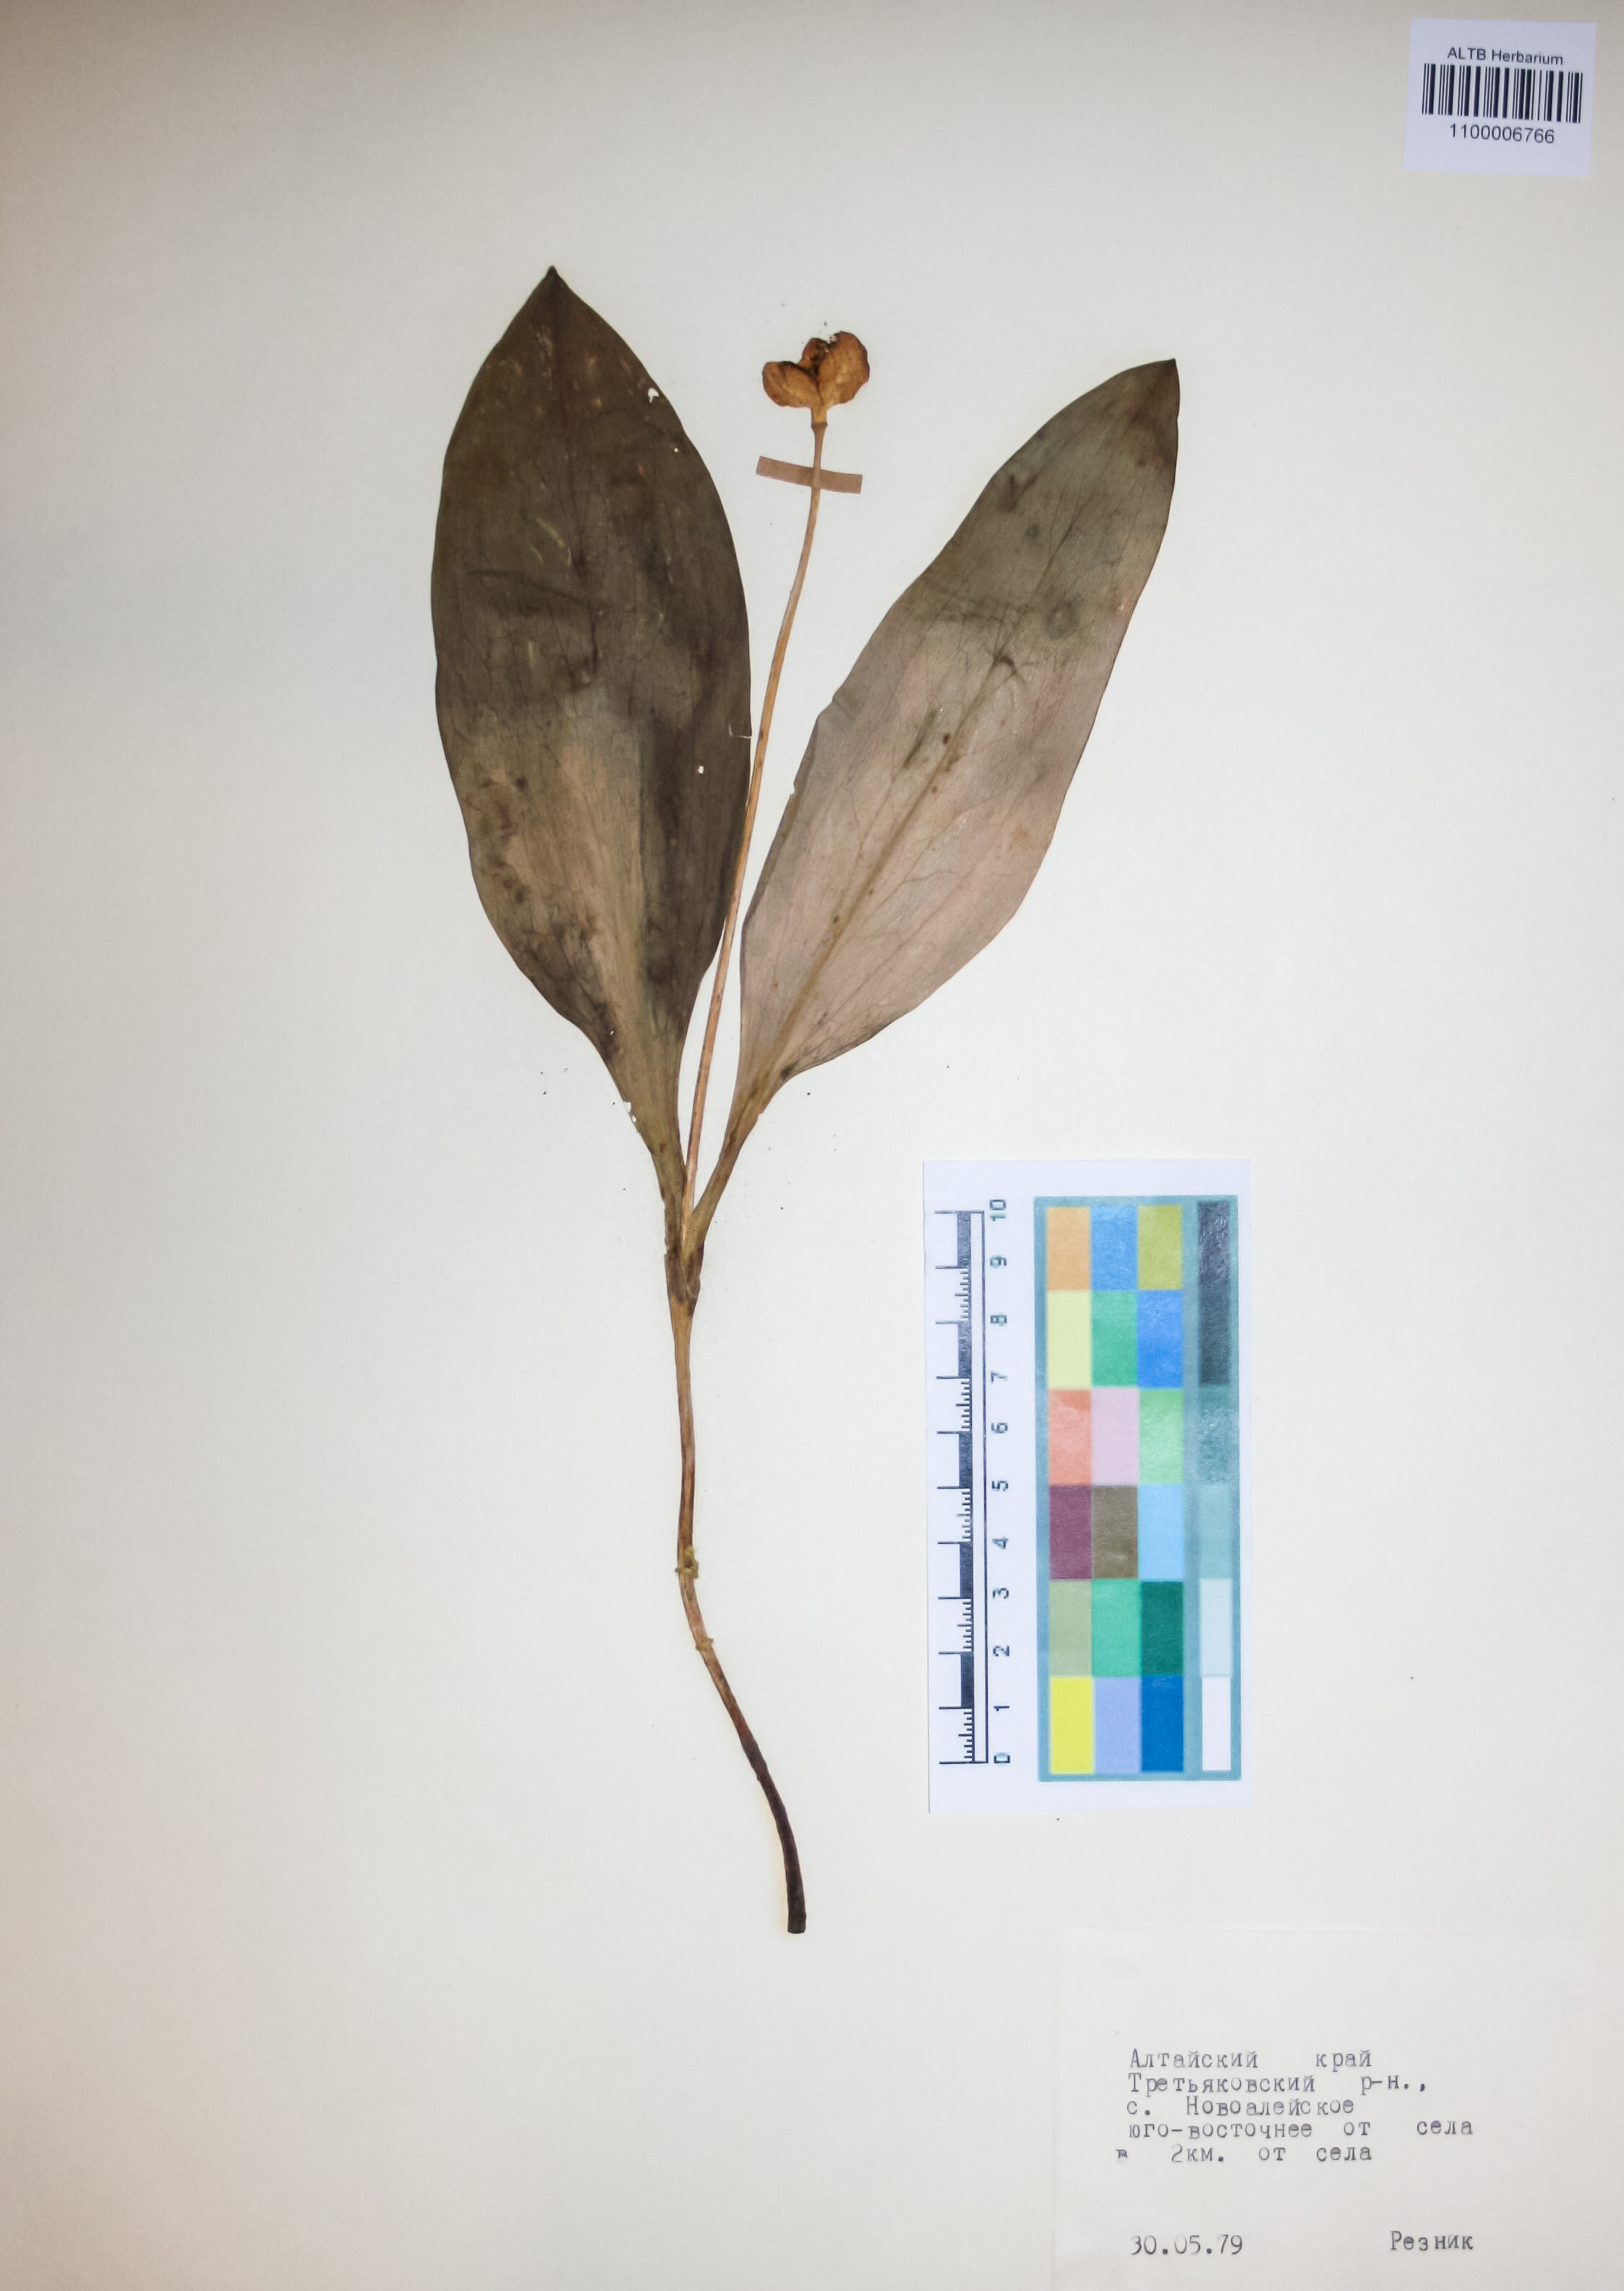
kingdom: Plantae
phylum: Tracheophyta
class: Liliopsida
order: Liliales
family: Liliaceae
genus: Erythronium
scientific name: Erythronium sibiricum
